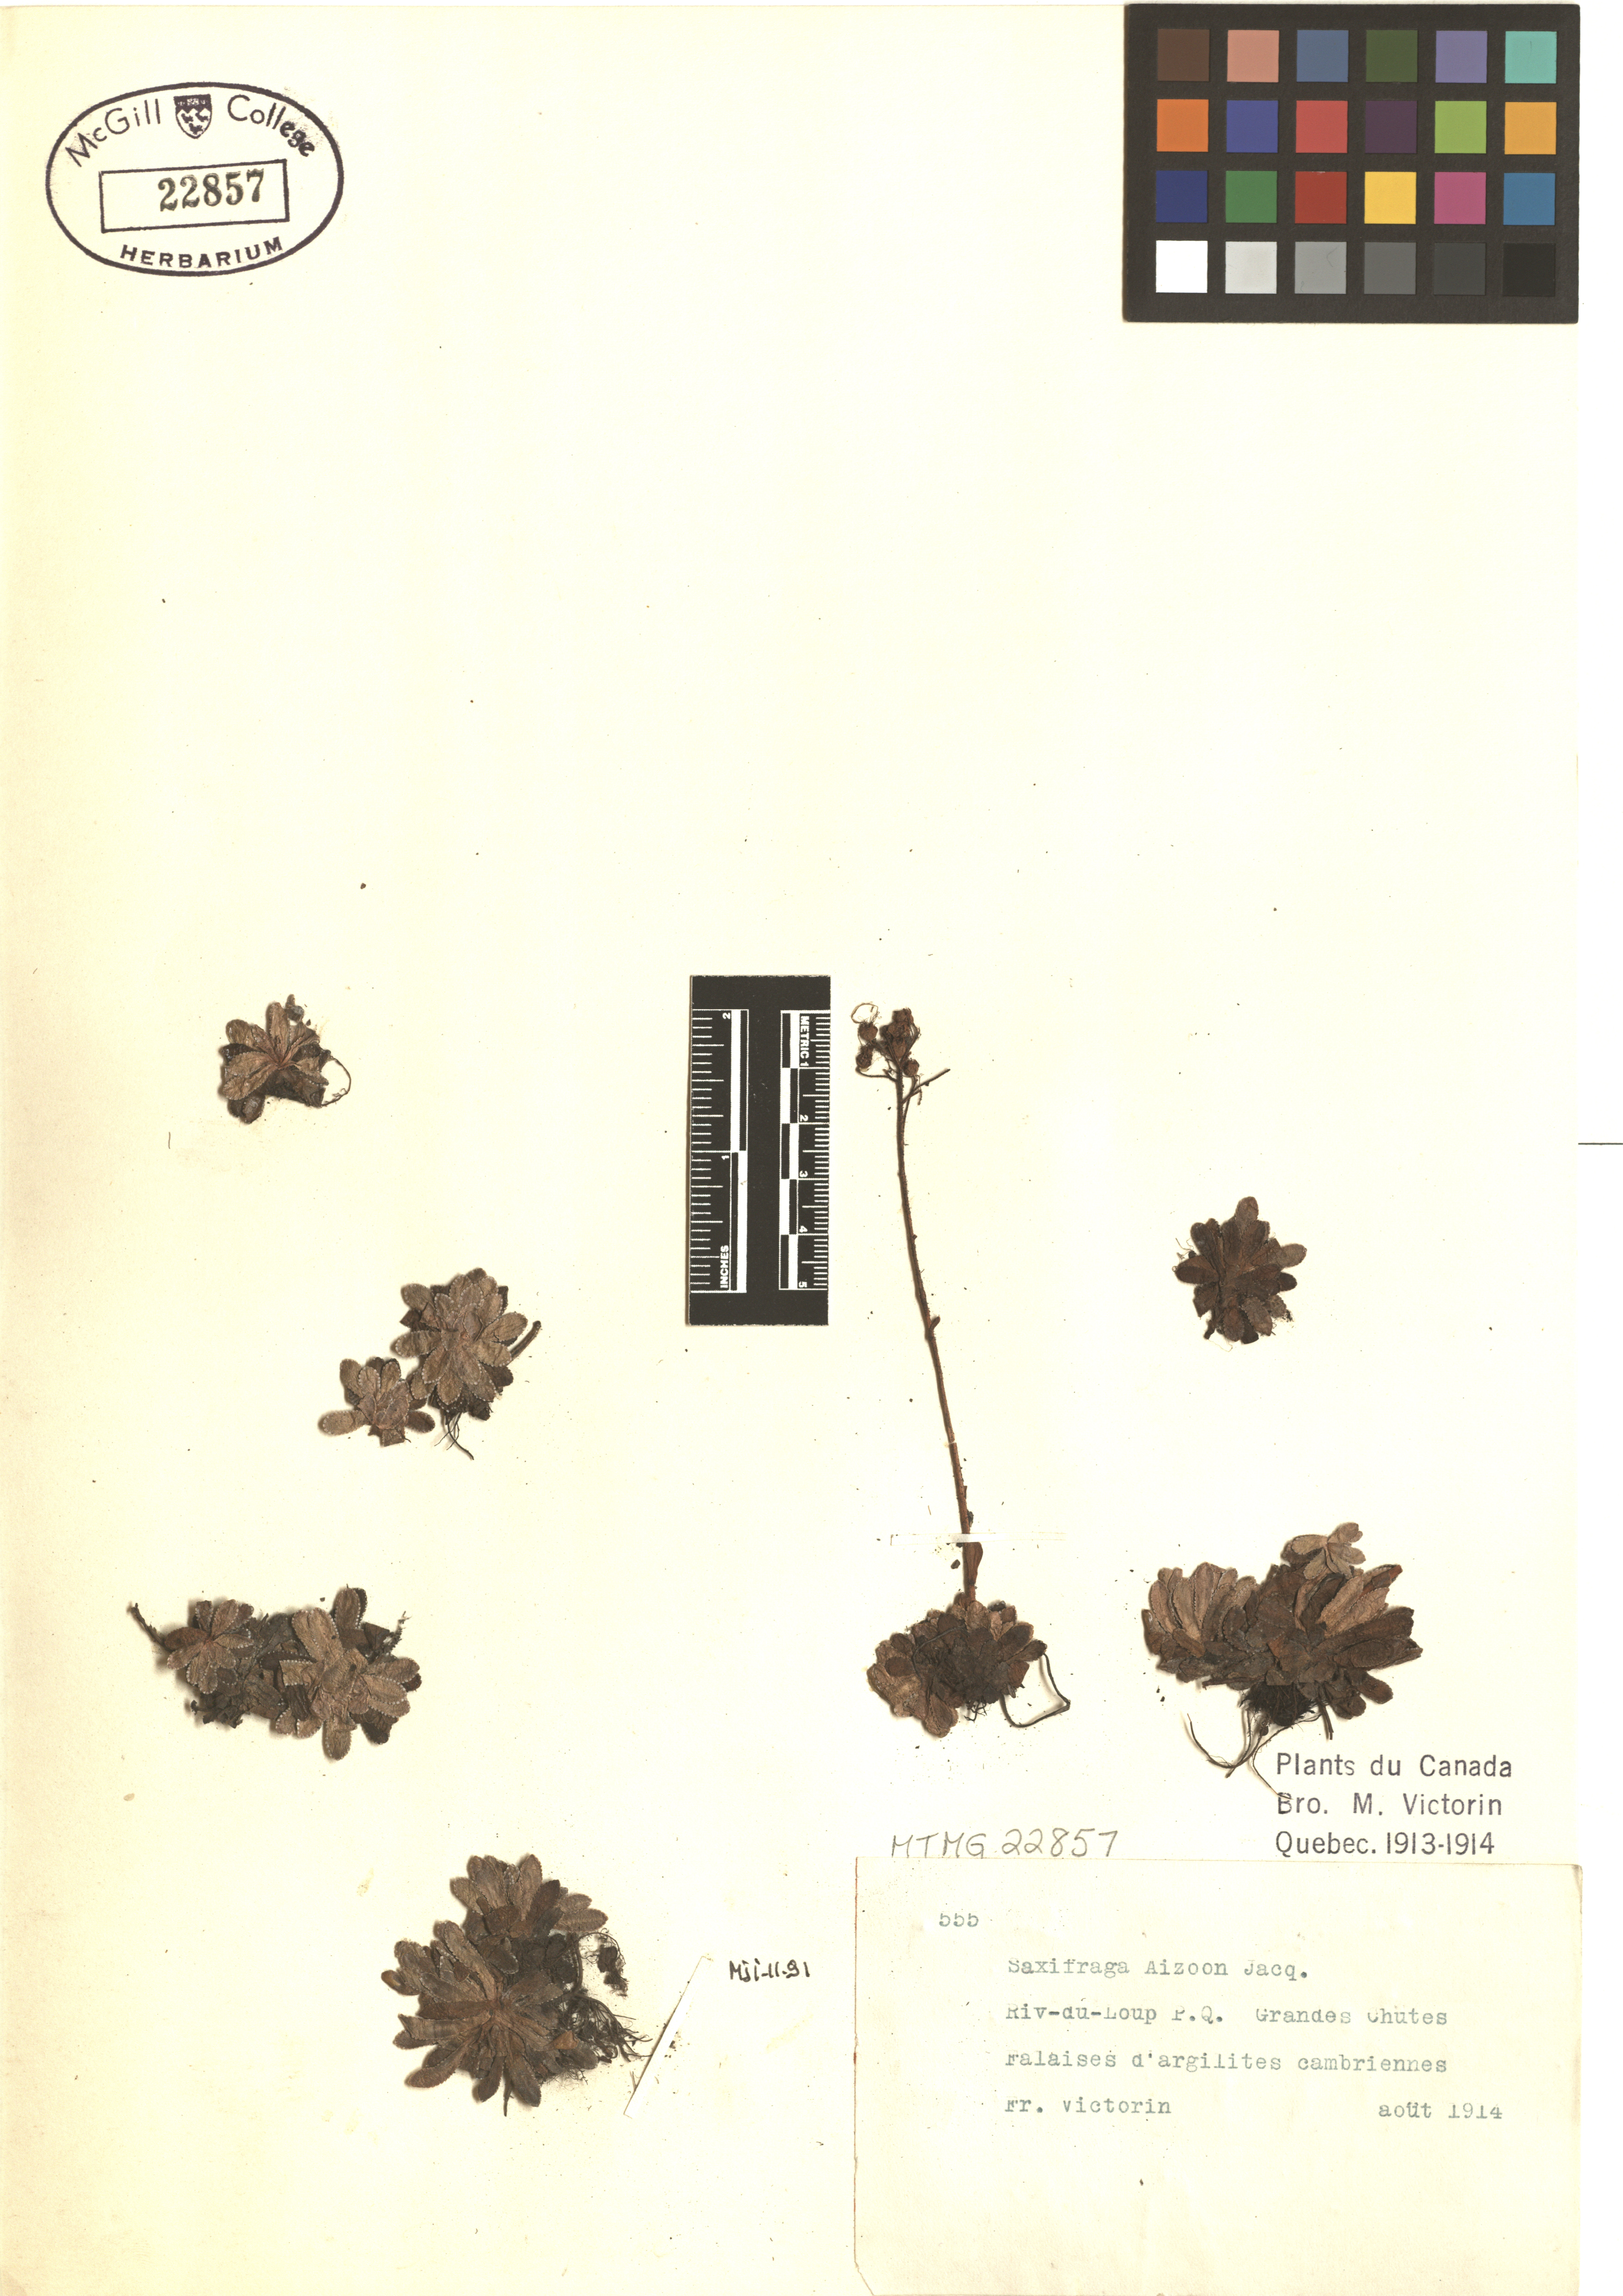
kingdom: Plantae
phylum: Tracheophyta
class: Magnoliopsida
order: Saxifragales
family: Saxifragaceae
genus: Saxifraga
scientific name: Saxifraga paniculata
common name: Livelong saxifrage
